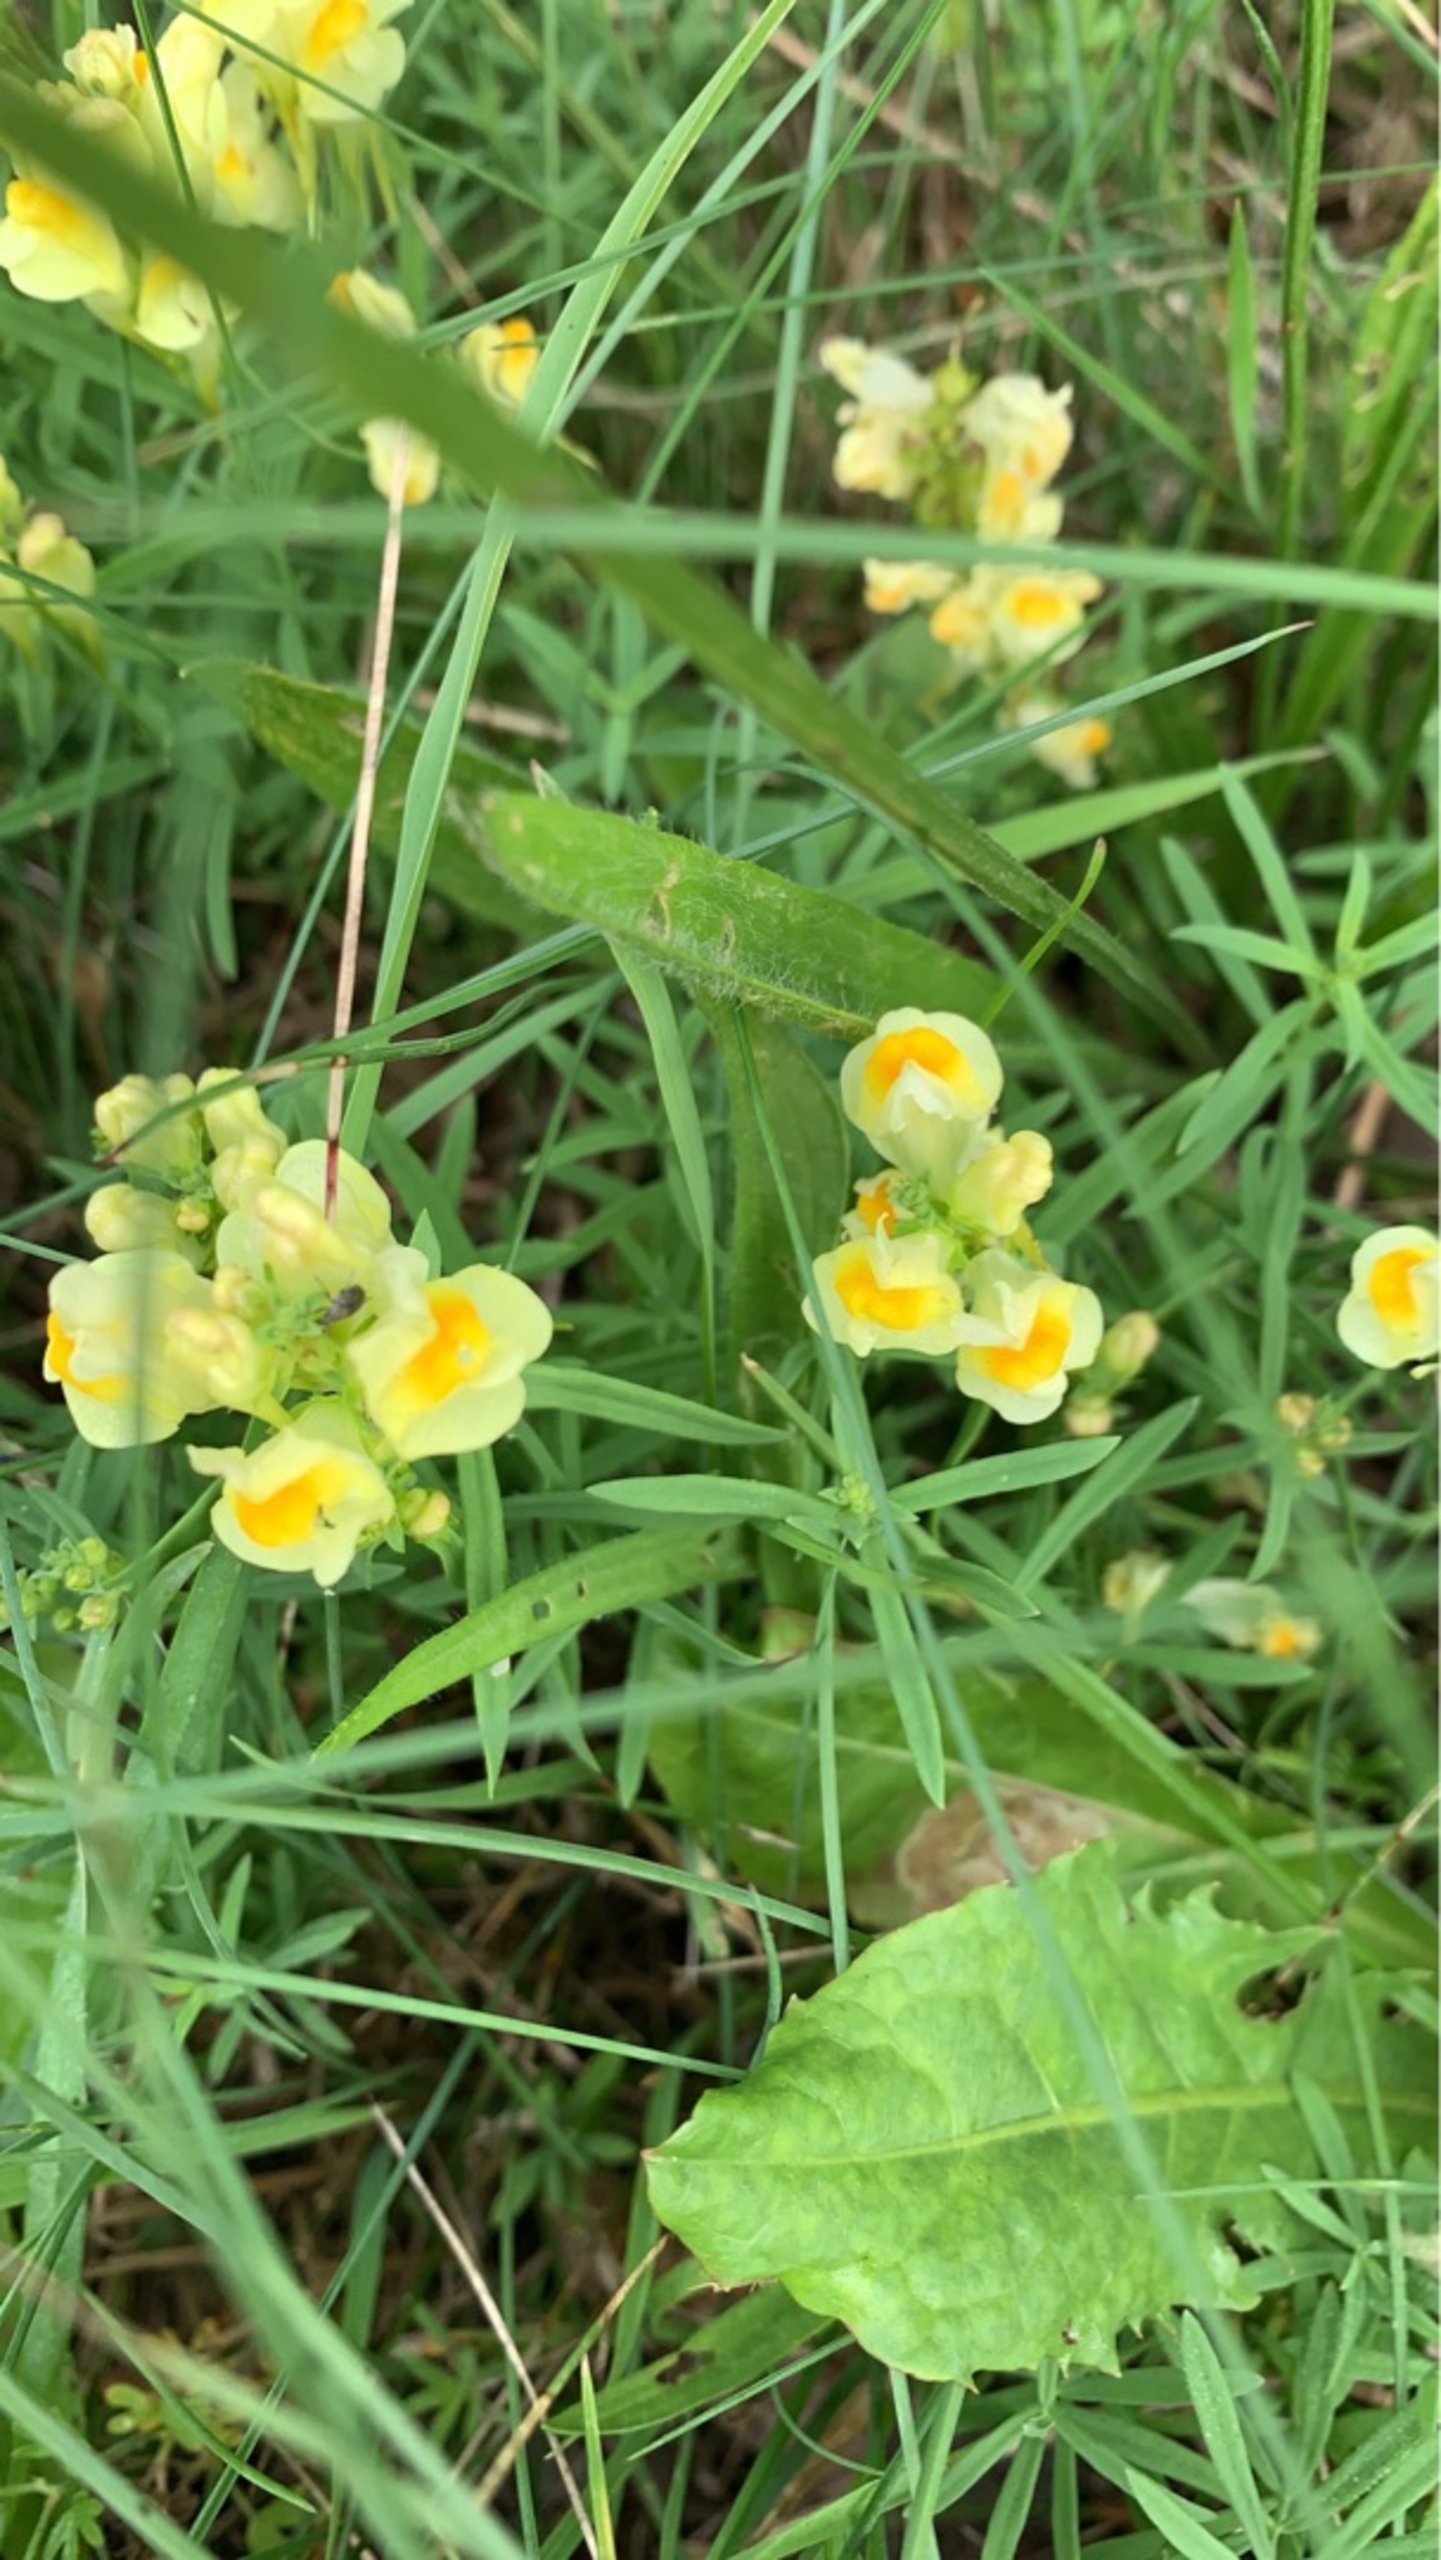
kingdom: Plantae
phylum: Tracheophyta
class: Magnoliopsida
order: Lamiales
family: Plantaginaceae
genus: Linaria
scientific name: Linaria vulgaris
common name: Almindelig torskemund
